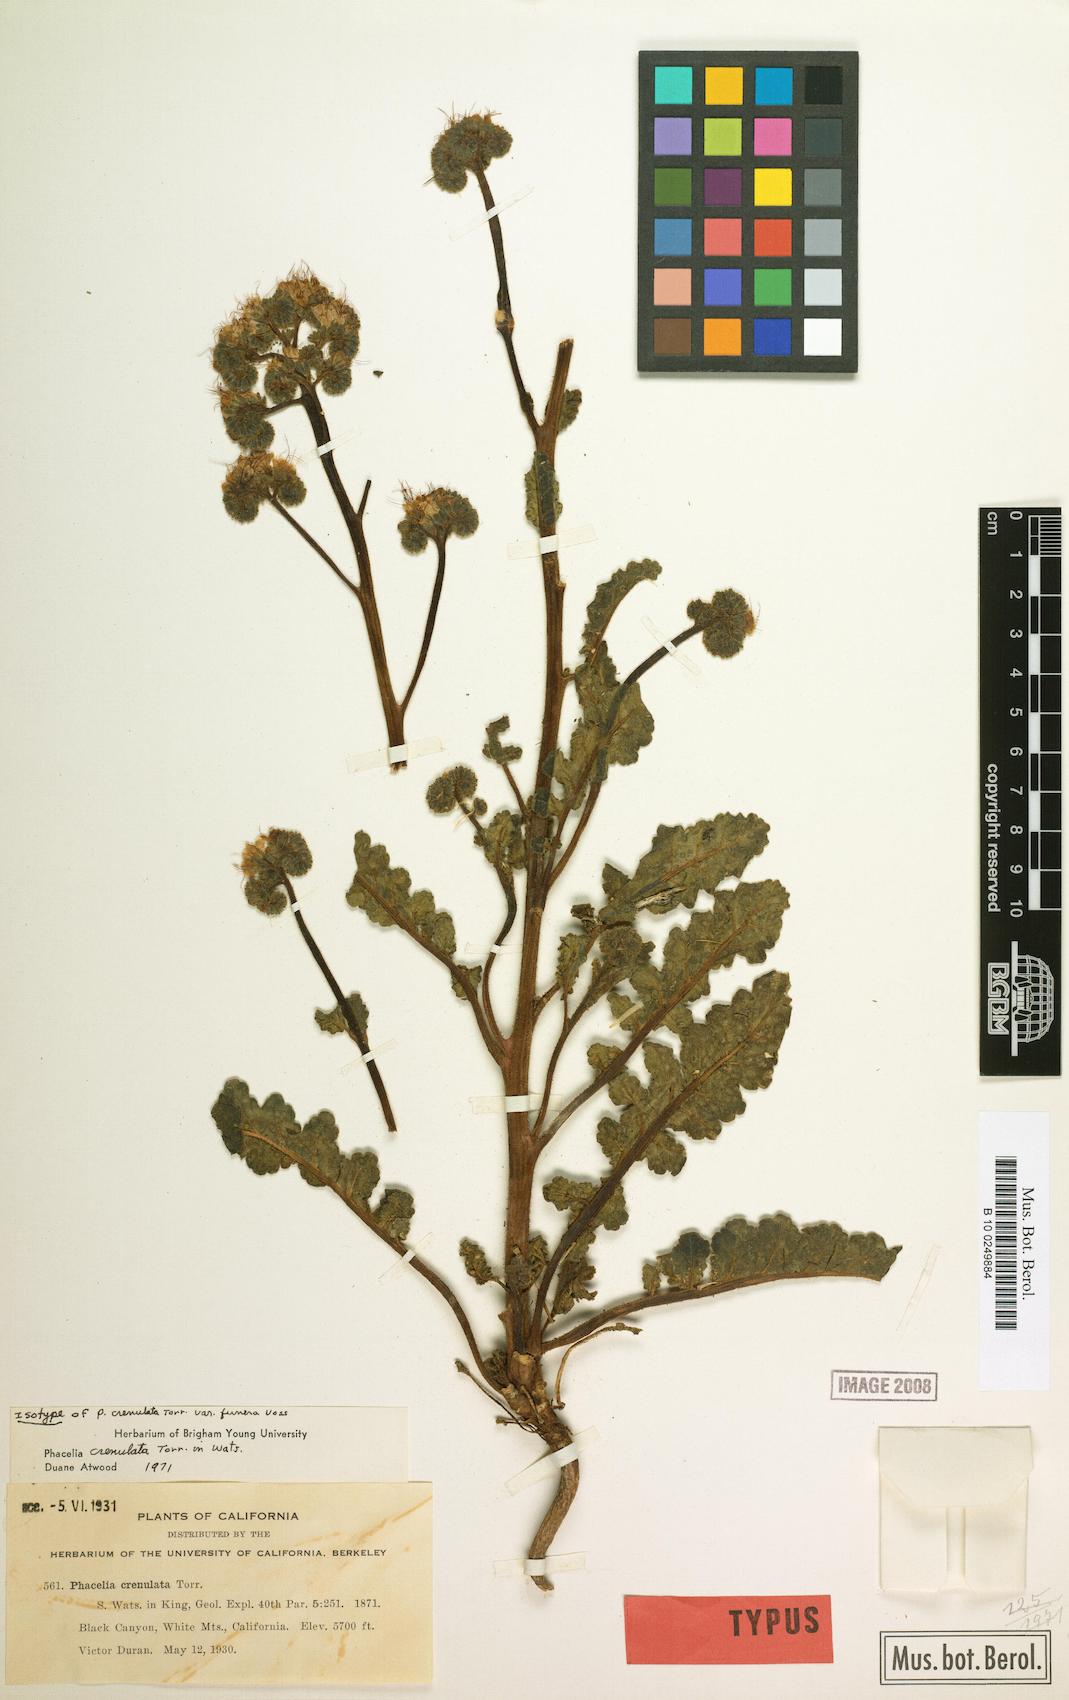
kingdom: Plantae
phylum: Tracheophyta
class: Magnoliopsida
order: Boraginales
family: Hydrophyllaceae
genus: Phacelia
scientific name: Phacelia crenulata
